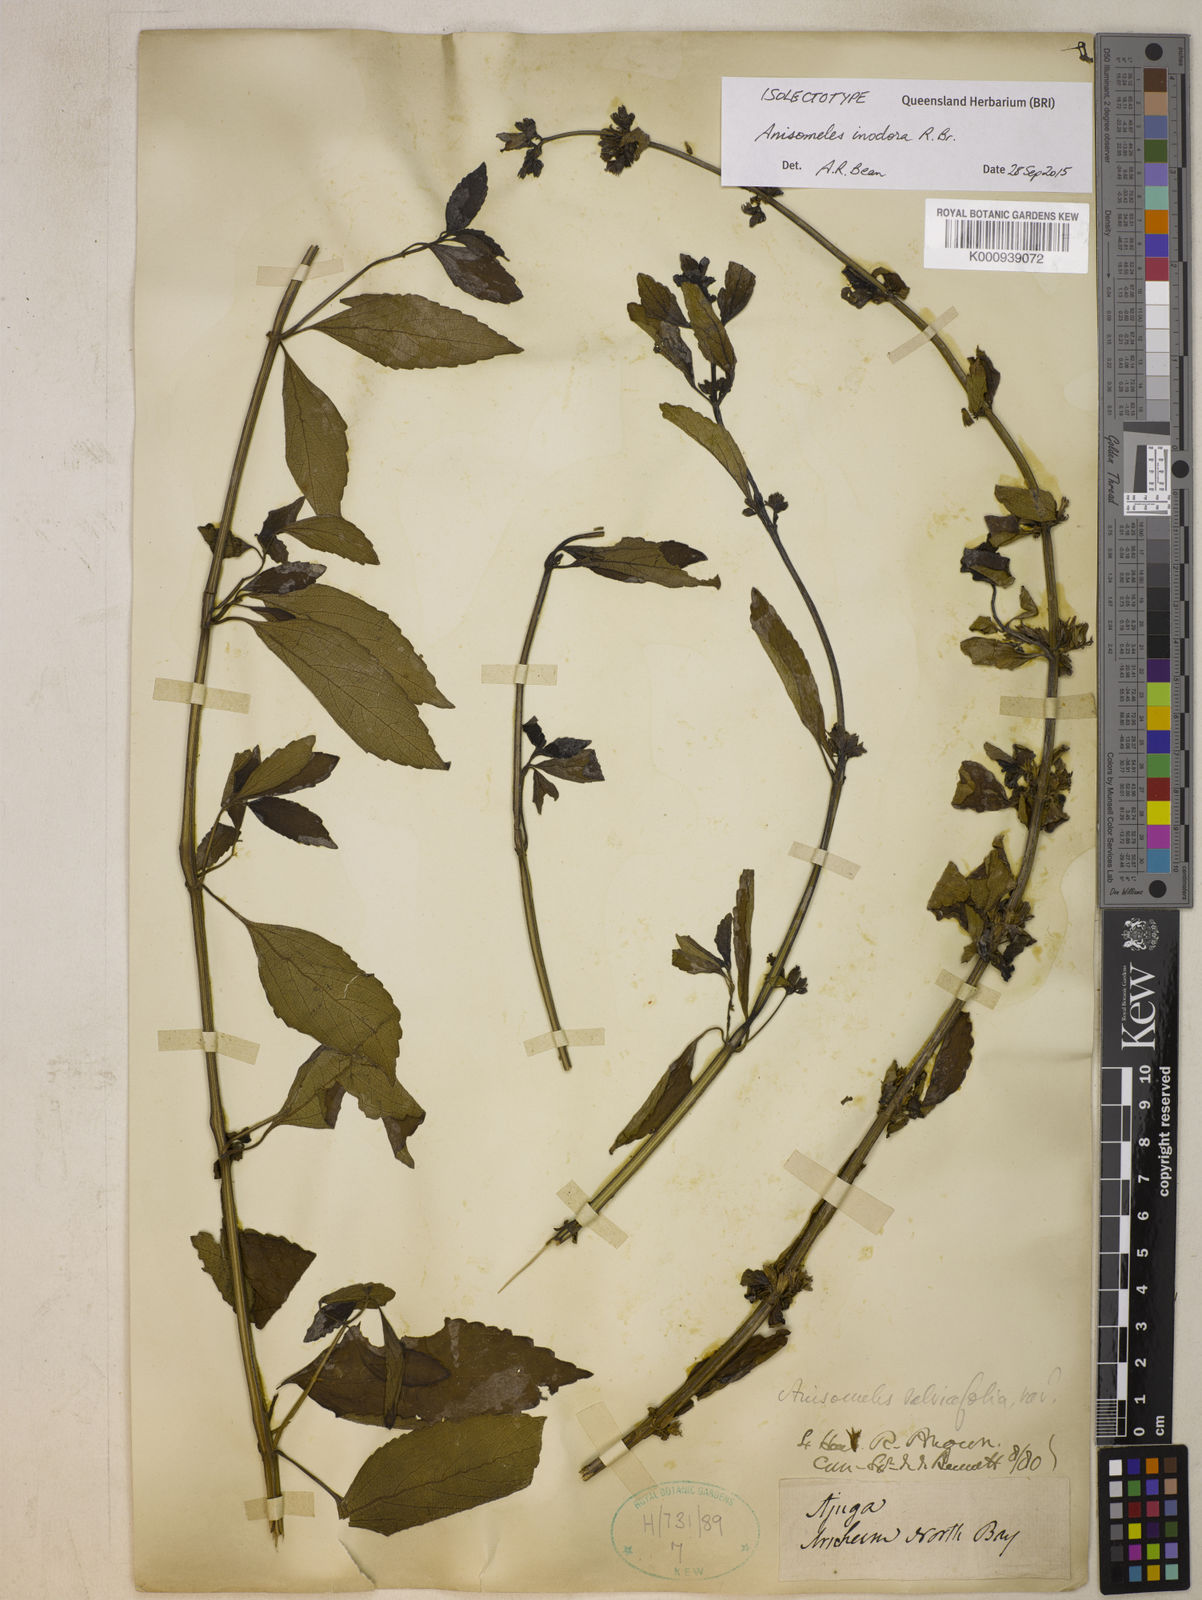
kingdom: Plantae
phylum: Tracheophyta
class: Magnoliopsida
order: Lamiales
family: Lamiaceae
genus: Anisomeles
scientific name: Anisomeles inodora
